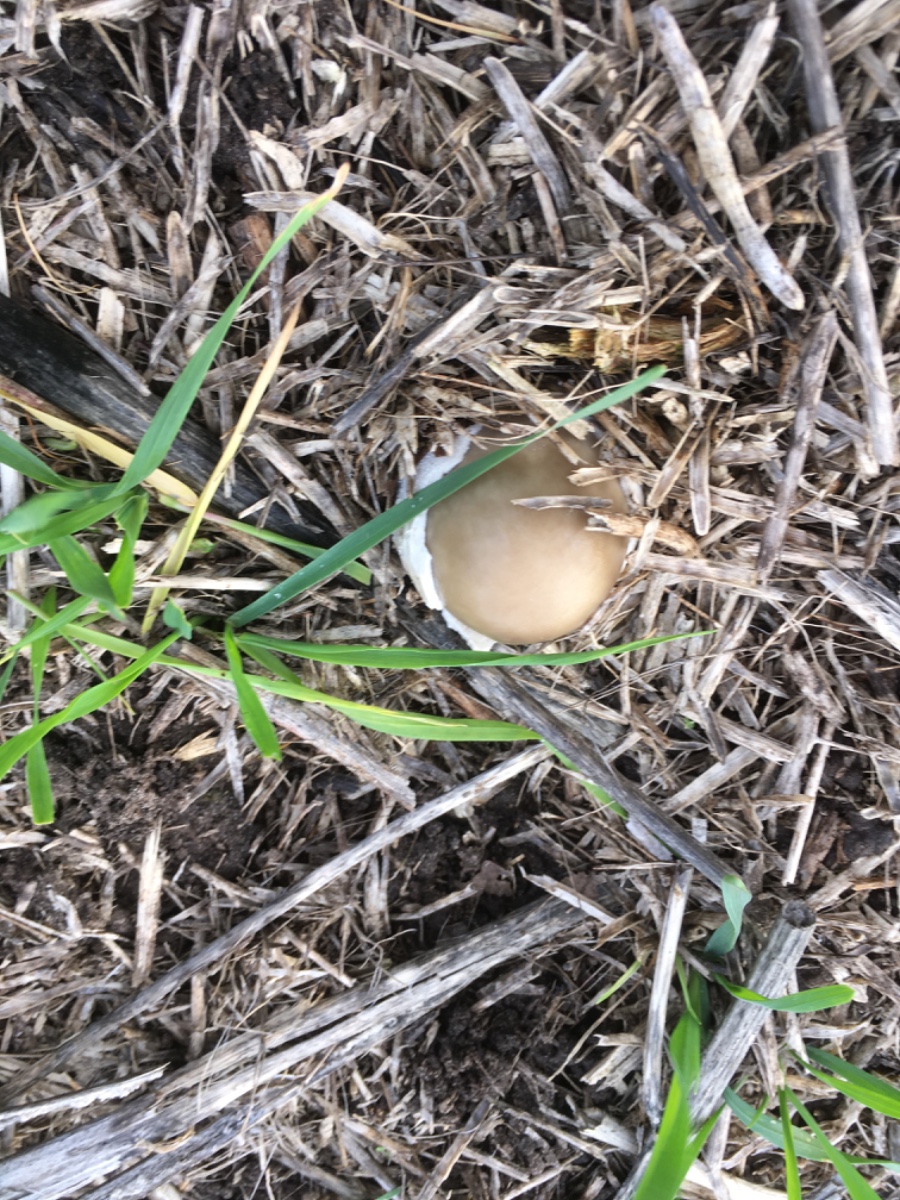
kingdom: Fungi
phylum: Basidiomycota
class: Agaricomycetes
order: Agaricales
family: Pluteaceae
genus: Volvopluteus
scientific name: Volvopluteus gloiocephalus
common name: høj posesvamp
